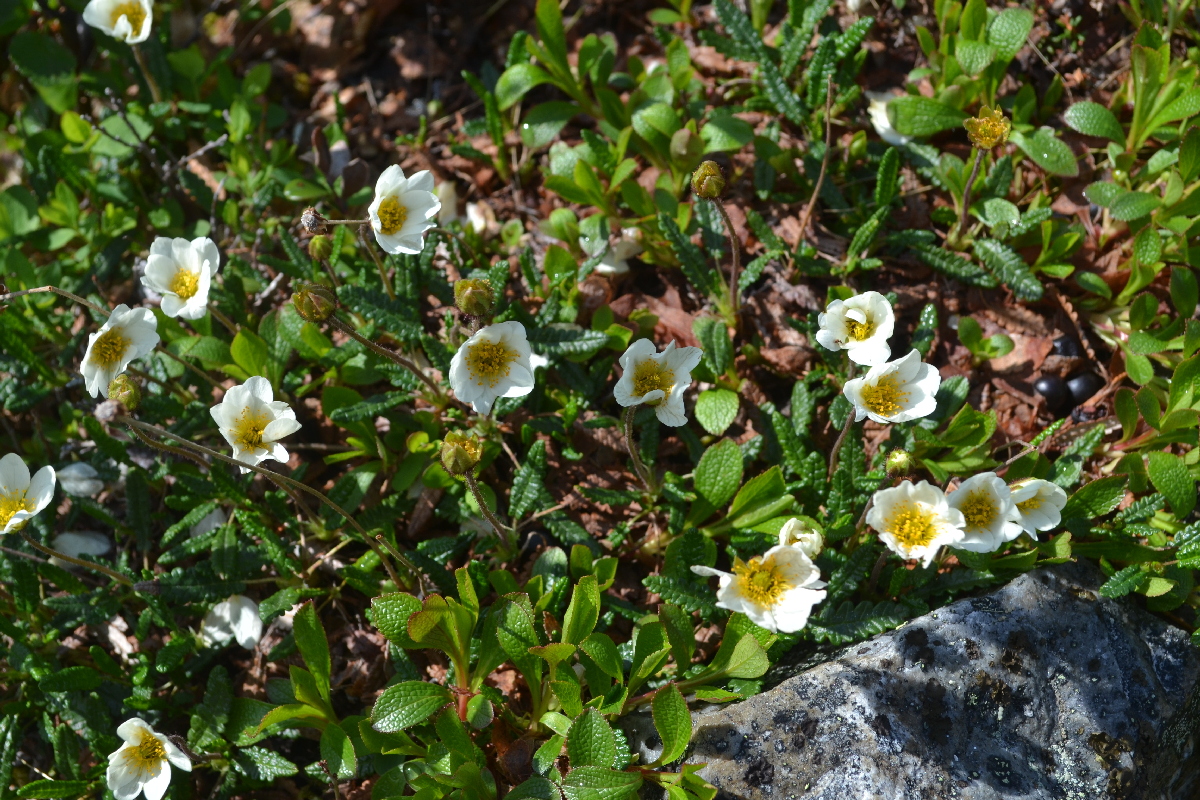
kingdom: Plantae
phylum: Tracheophyta
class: Magnoliopsida
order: Rosales
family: Rosaceae
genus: Dryas
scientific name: Dryas octopetala
